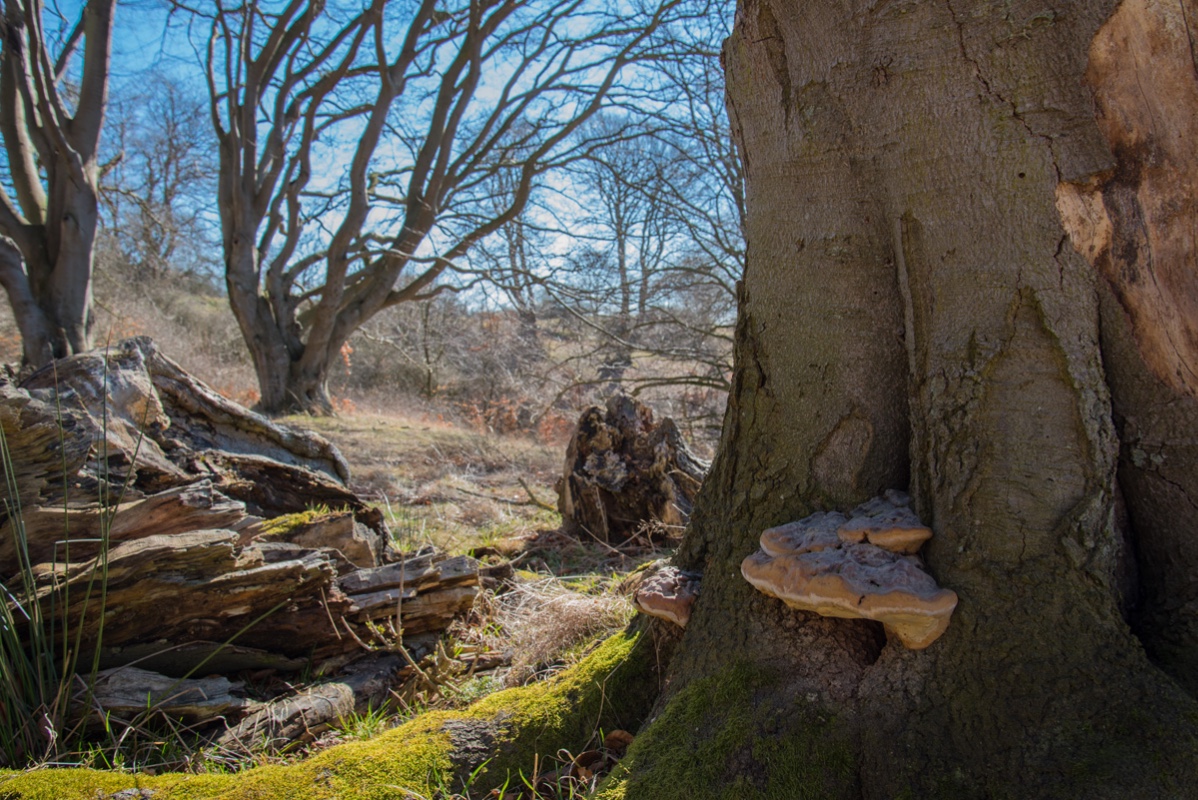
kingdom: Fungi
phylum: Basidiomycota
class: Agaricomycetes
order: Polyporales
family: Polyporaceae
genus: Ganoderma
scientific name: Ganoderma pfeifferi
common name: kobberrød lakporesvamp
